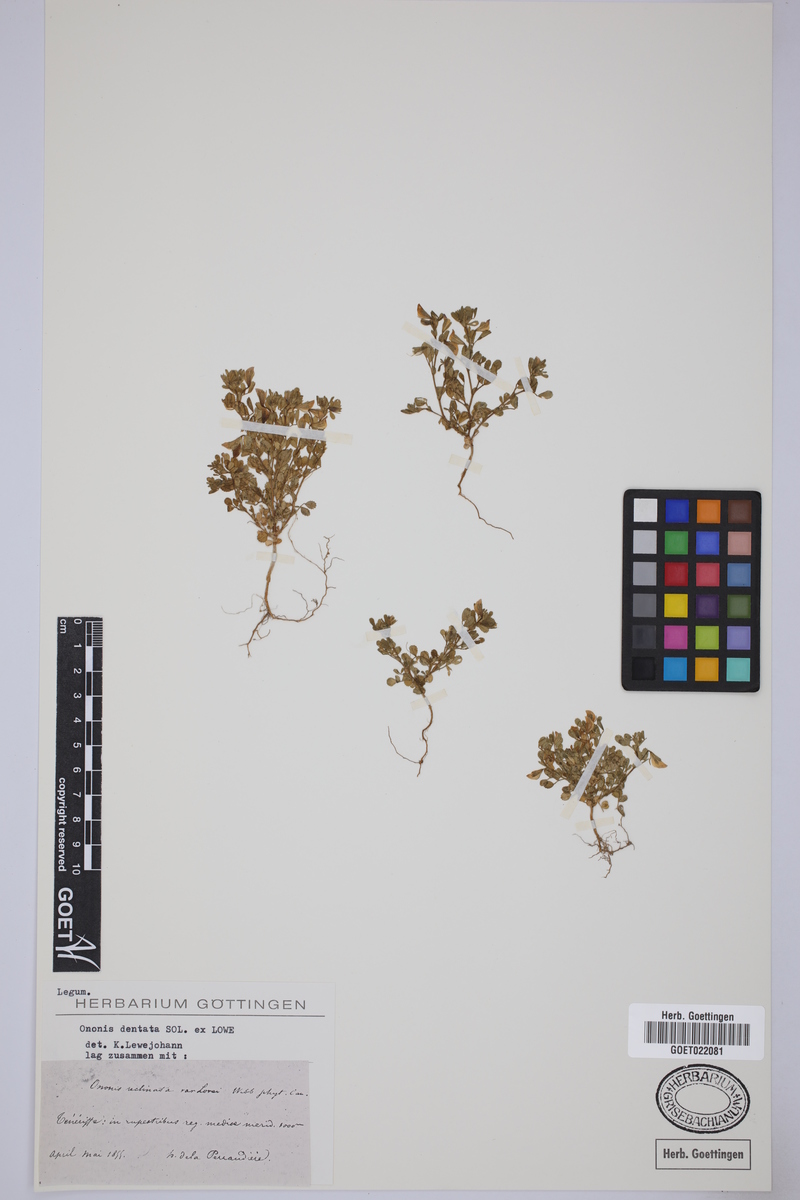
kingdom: Plantae
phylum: Tracheophyta
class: Magnoliopsida
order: Fabales
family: Fabaceae
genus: Ononis
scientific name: Ononis dentata
